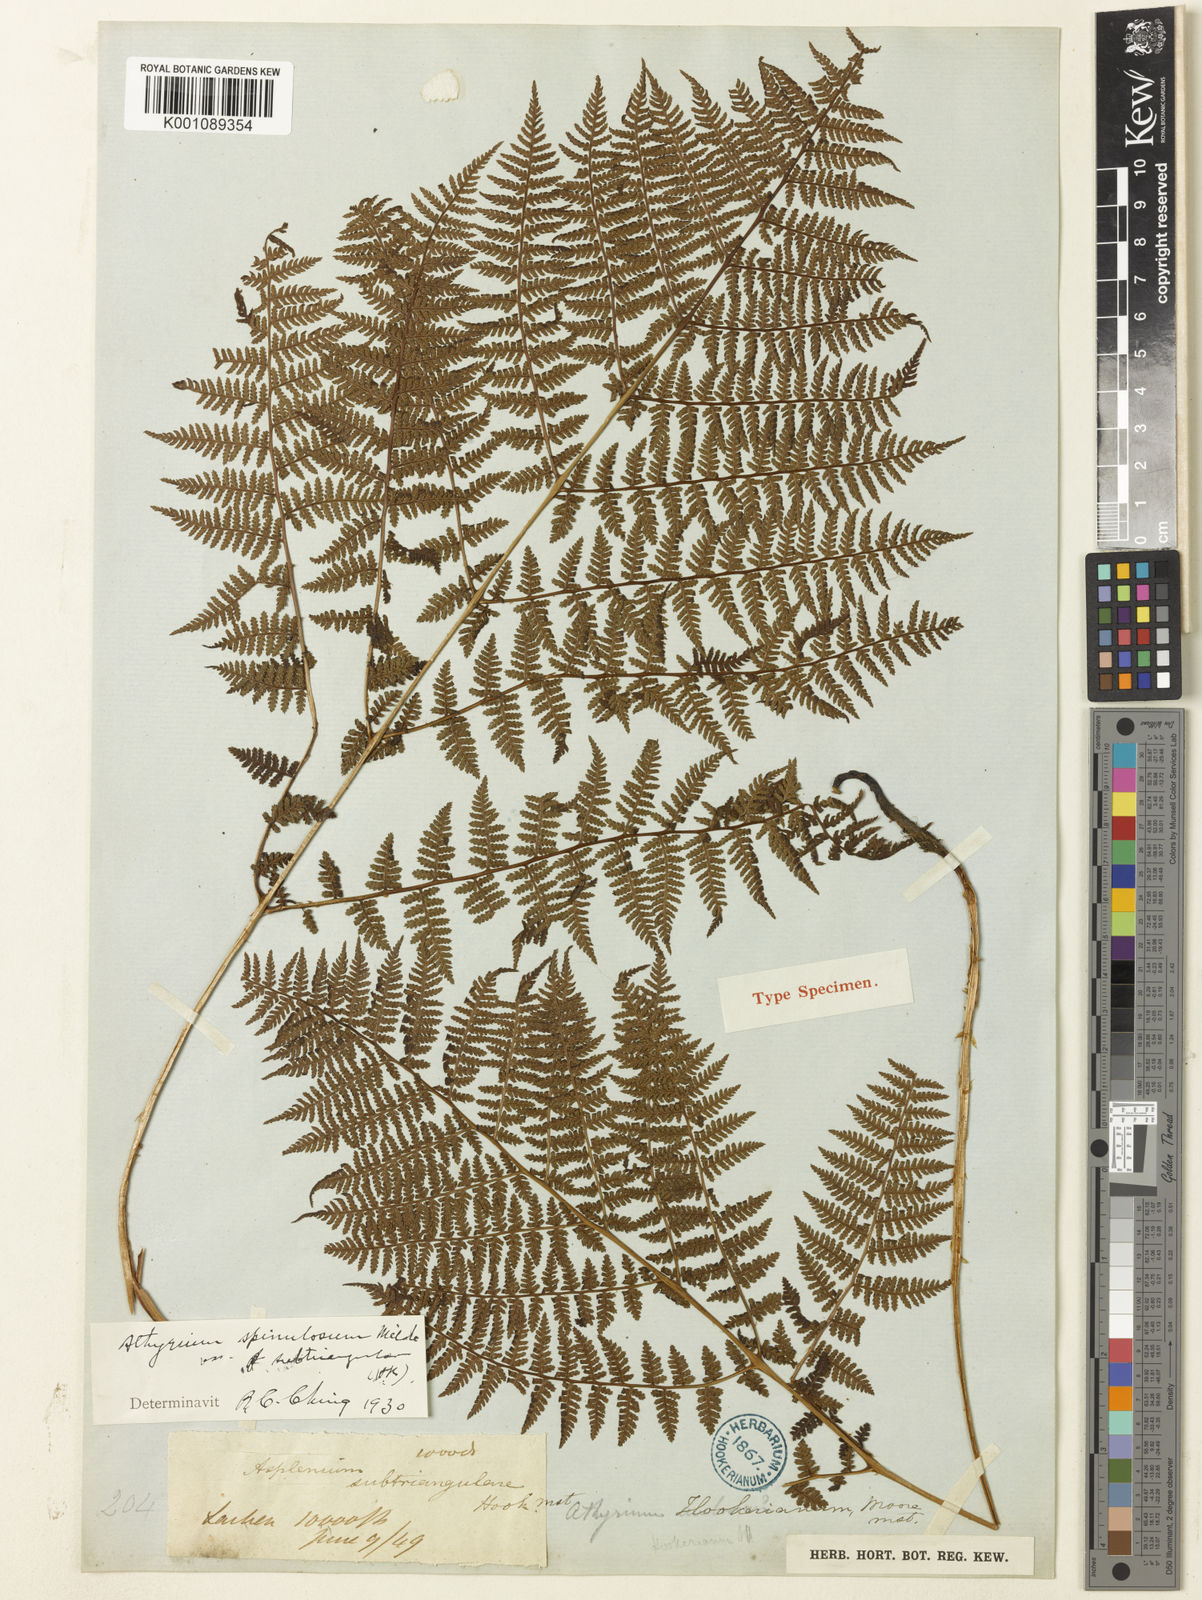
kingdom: Plantae
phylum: Tracheophyta
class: Polypodiopsida
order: Polypodiales
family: Athyriaceae
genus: Athyrium
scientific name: Athyrium wallichianum
